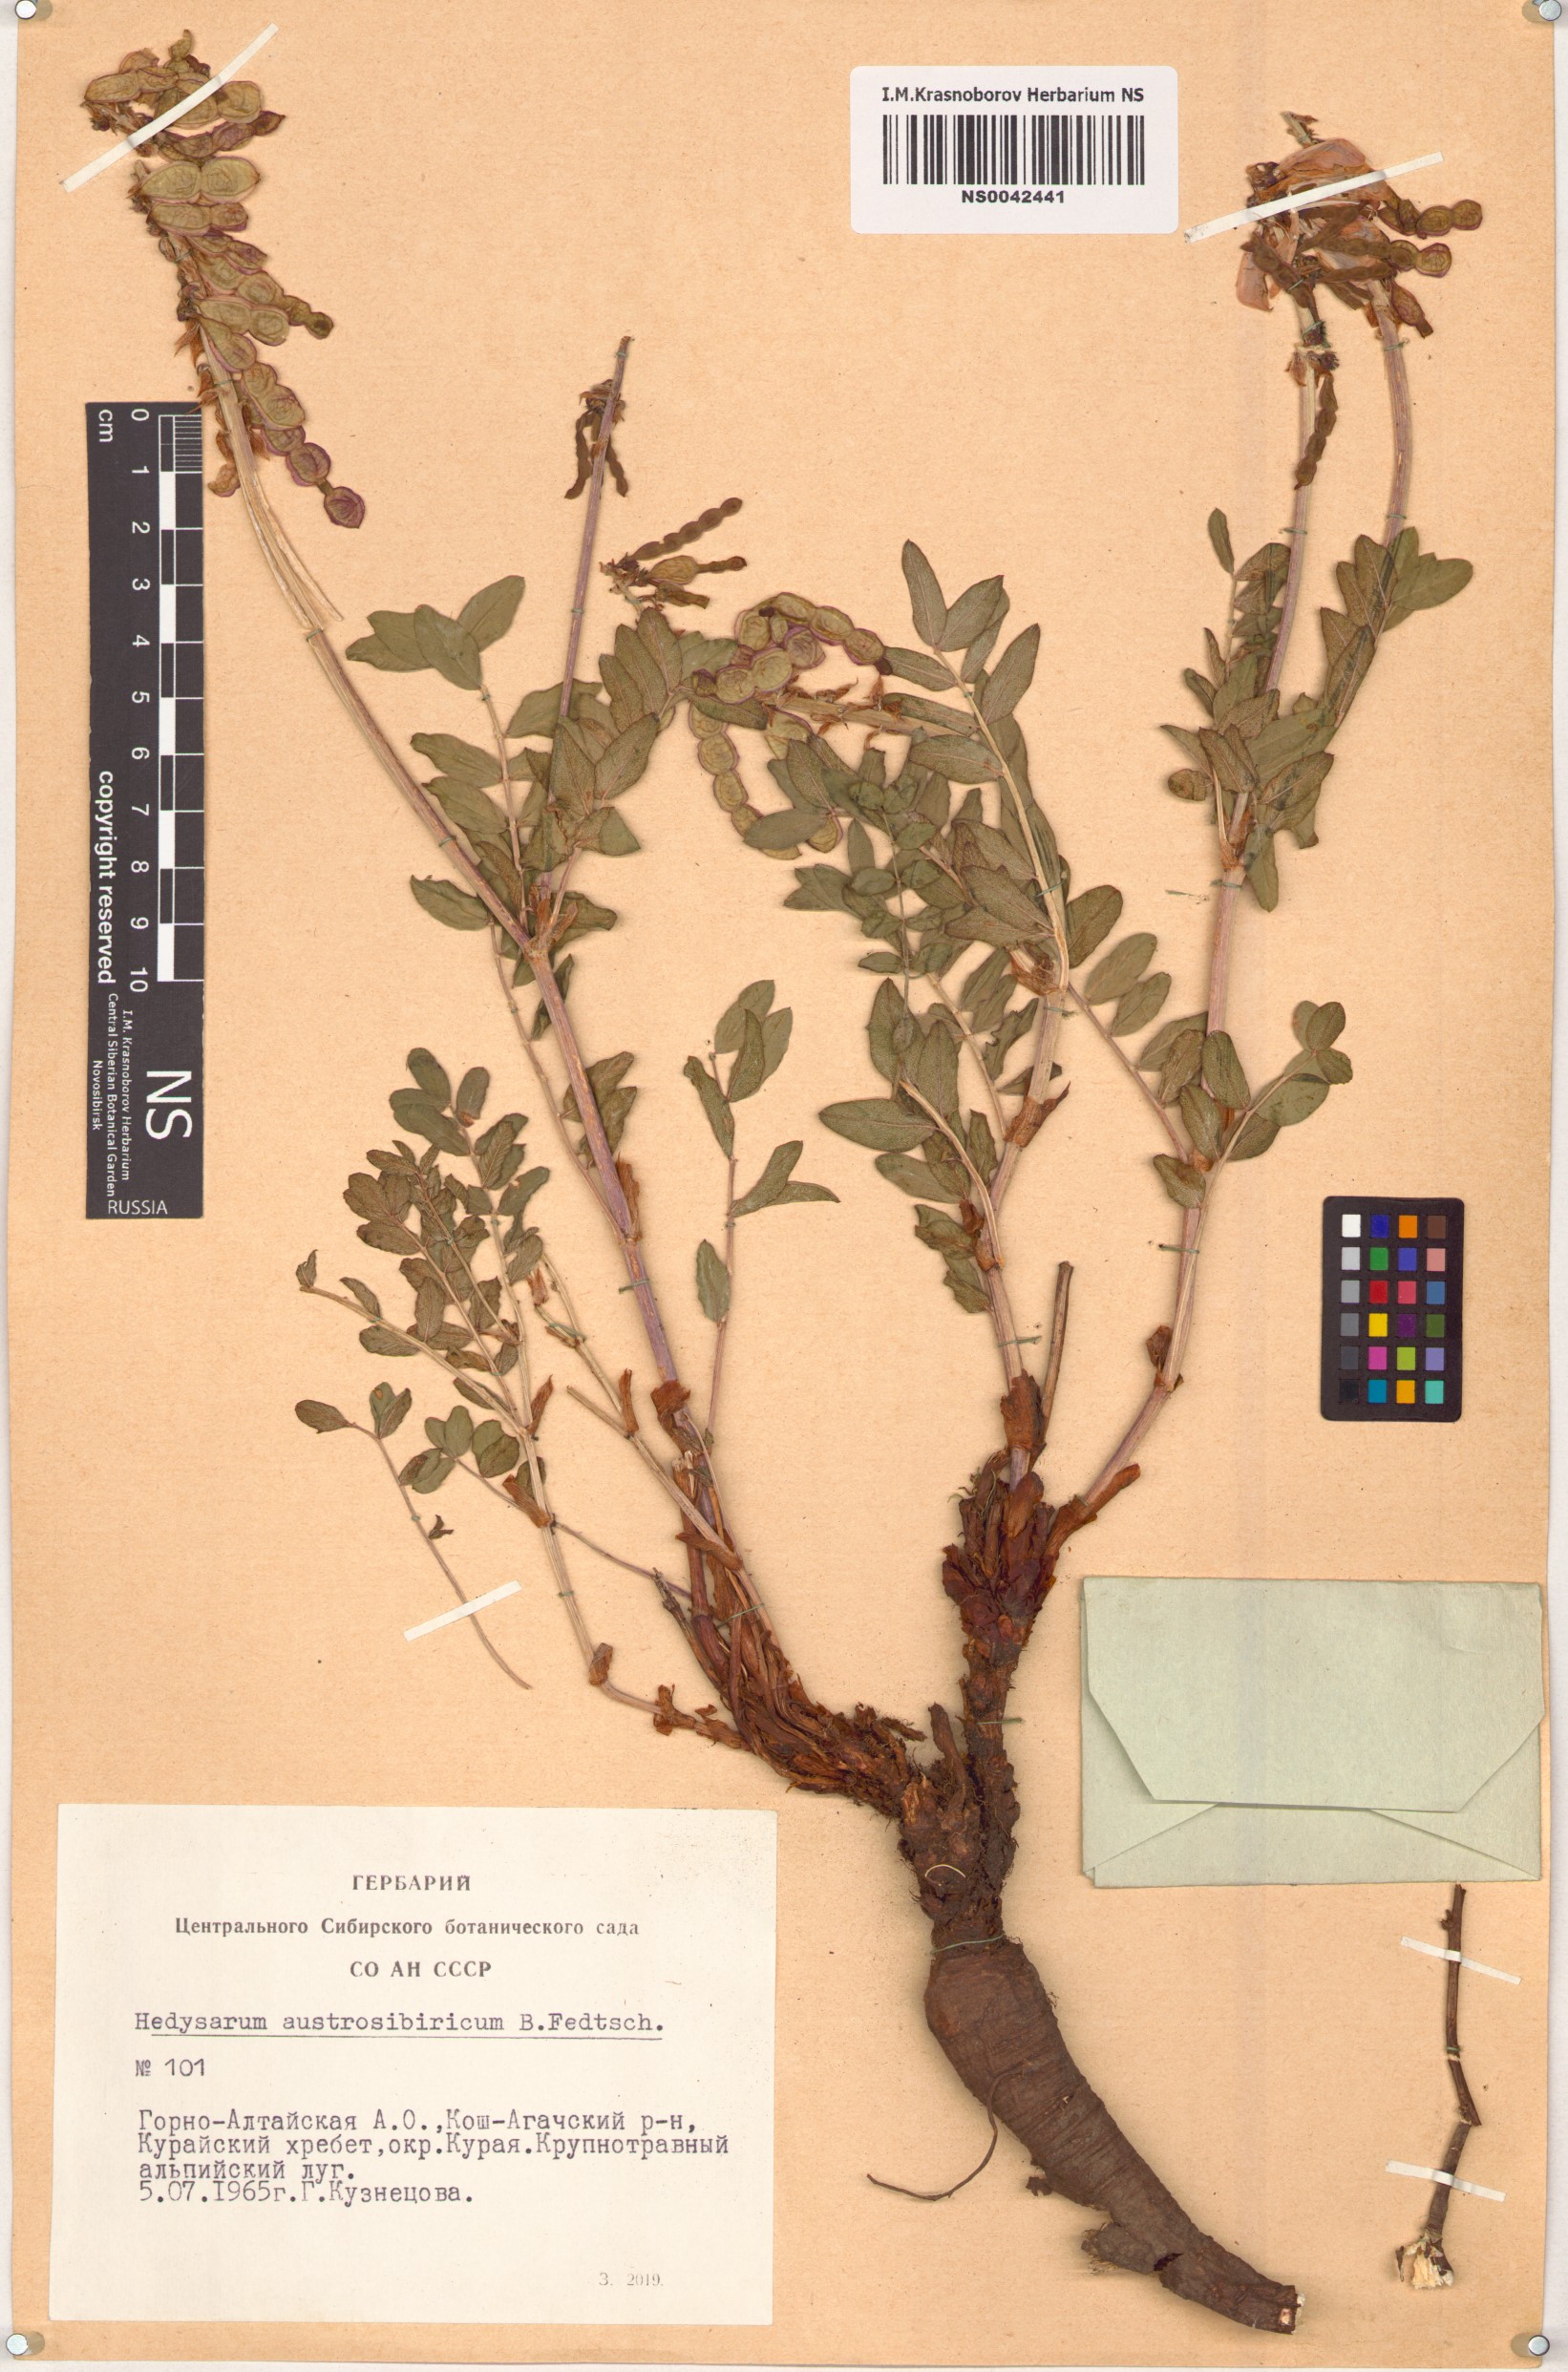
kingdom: Plantae
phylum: Tracheophyta
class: Magnoliopsida
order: Fabales
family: Fabaceae
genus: Hedysarum
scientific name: Hedysarum neglectum
